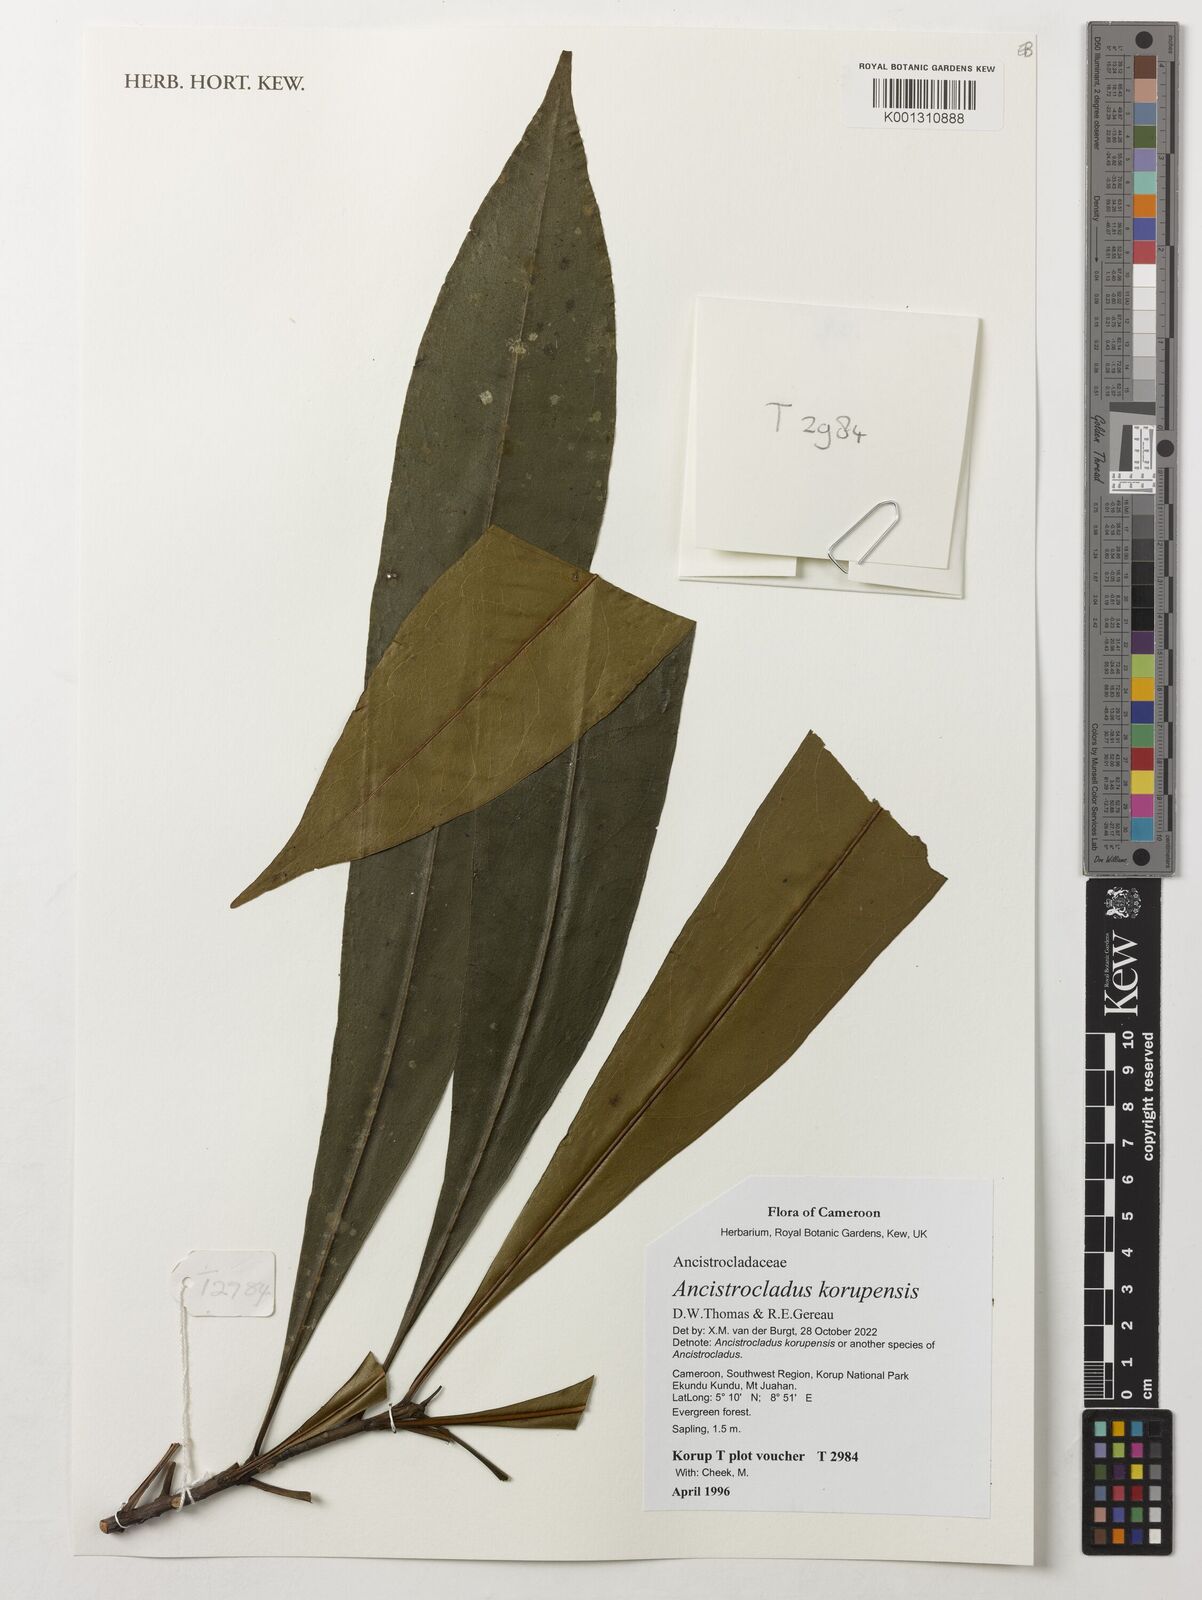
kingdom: Plantae
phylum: Tracheophyta
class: Magnoliopsida
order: Caryophyllales
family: Ancistrocladaceae
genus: Ancistrocladus
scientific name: Ancistrocladus korupensis
